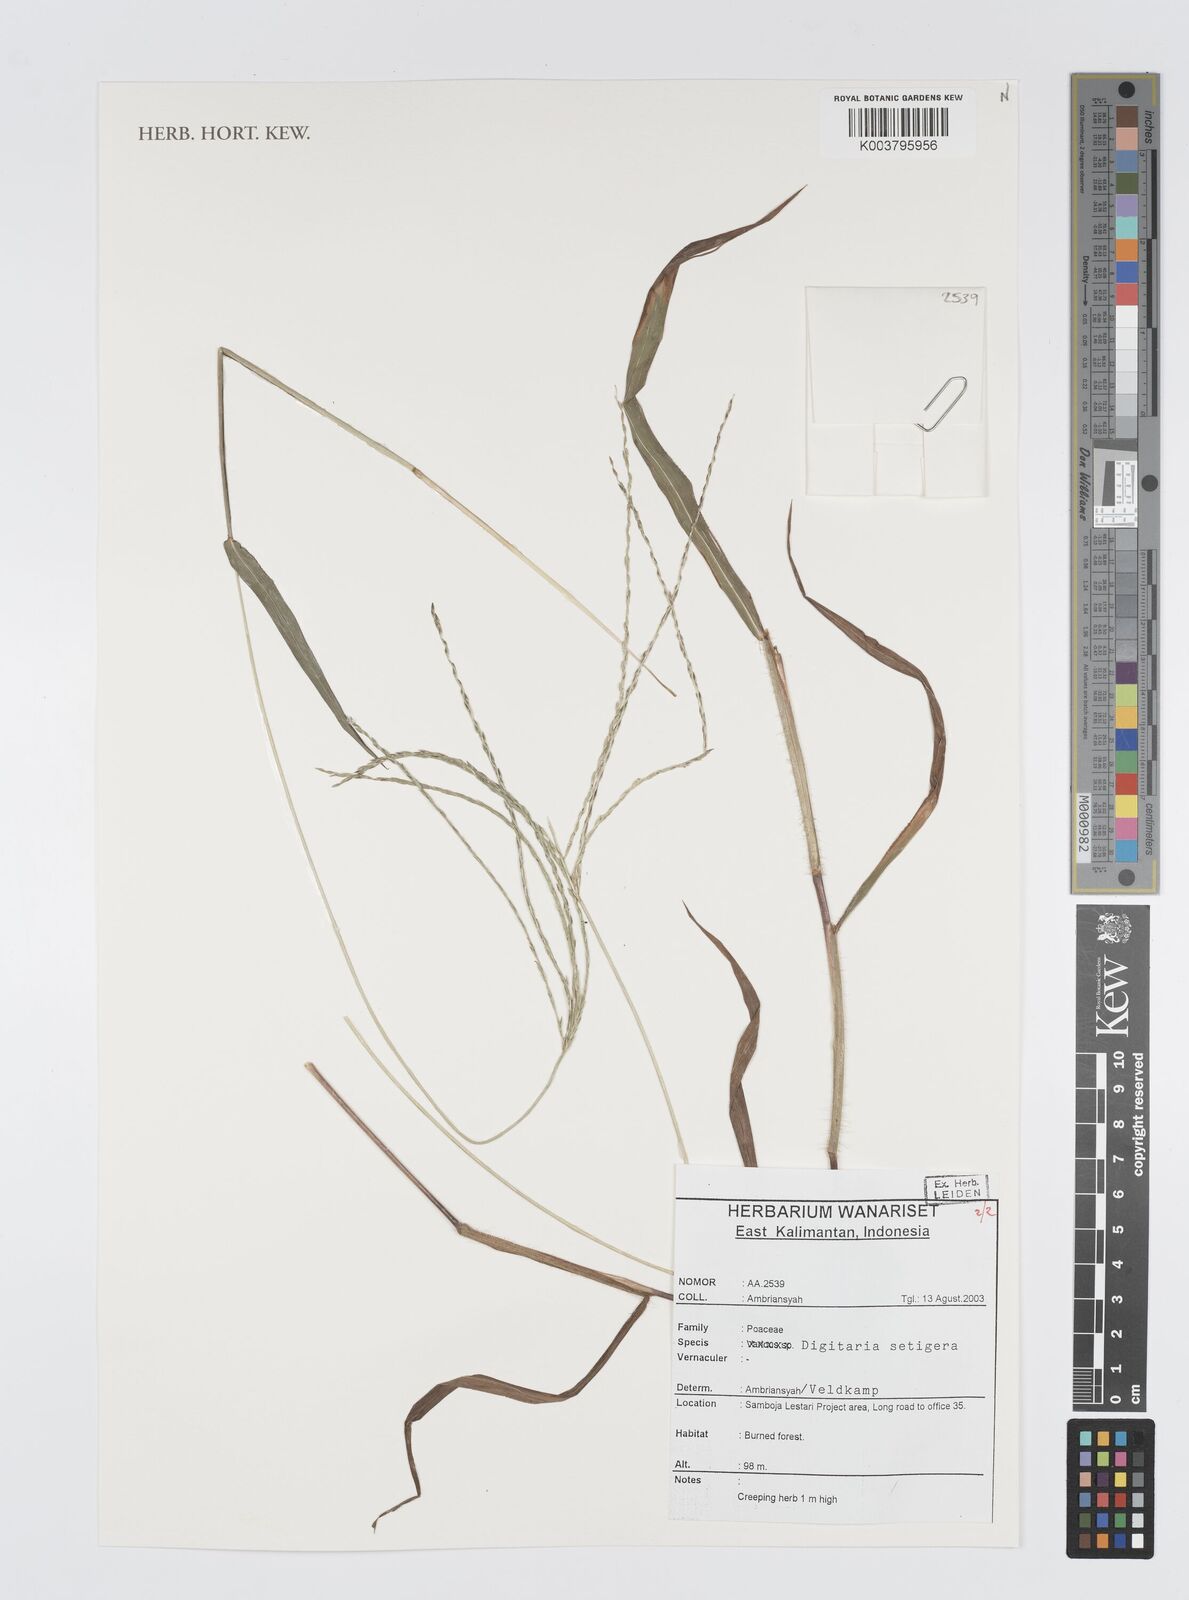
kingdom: Plantae
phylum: Tracheophyta
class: Liliopsida
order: Poales
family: Poaceae
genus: Digitaria
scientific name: Digitaria setigera
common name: East indian crabgrass
